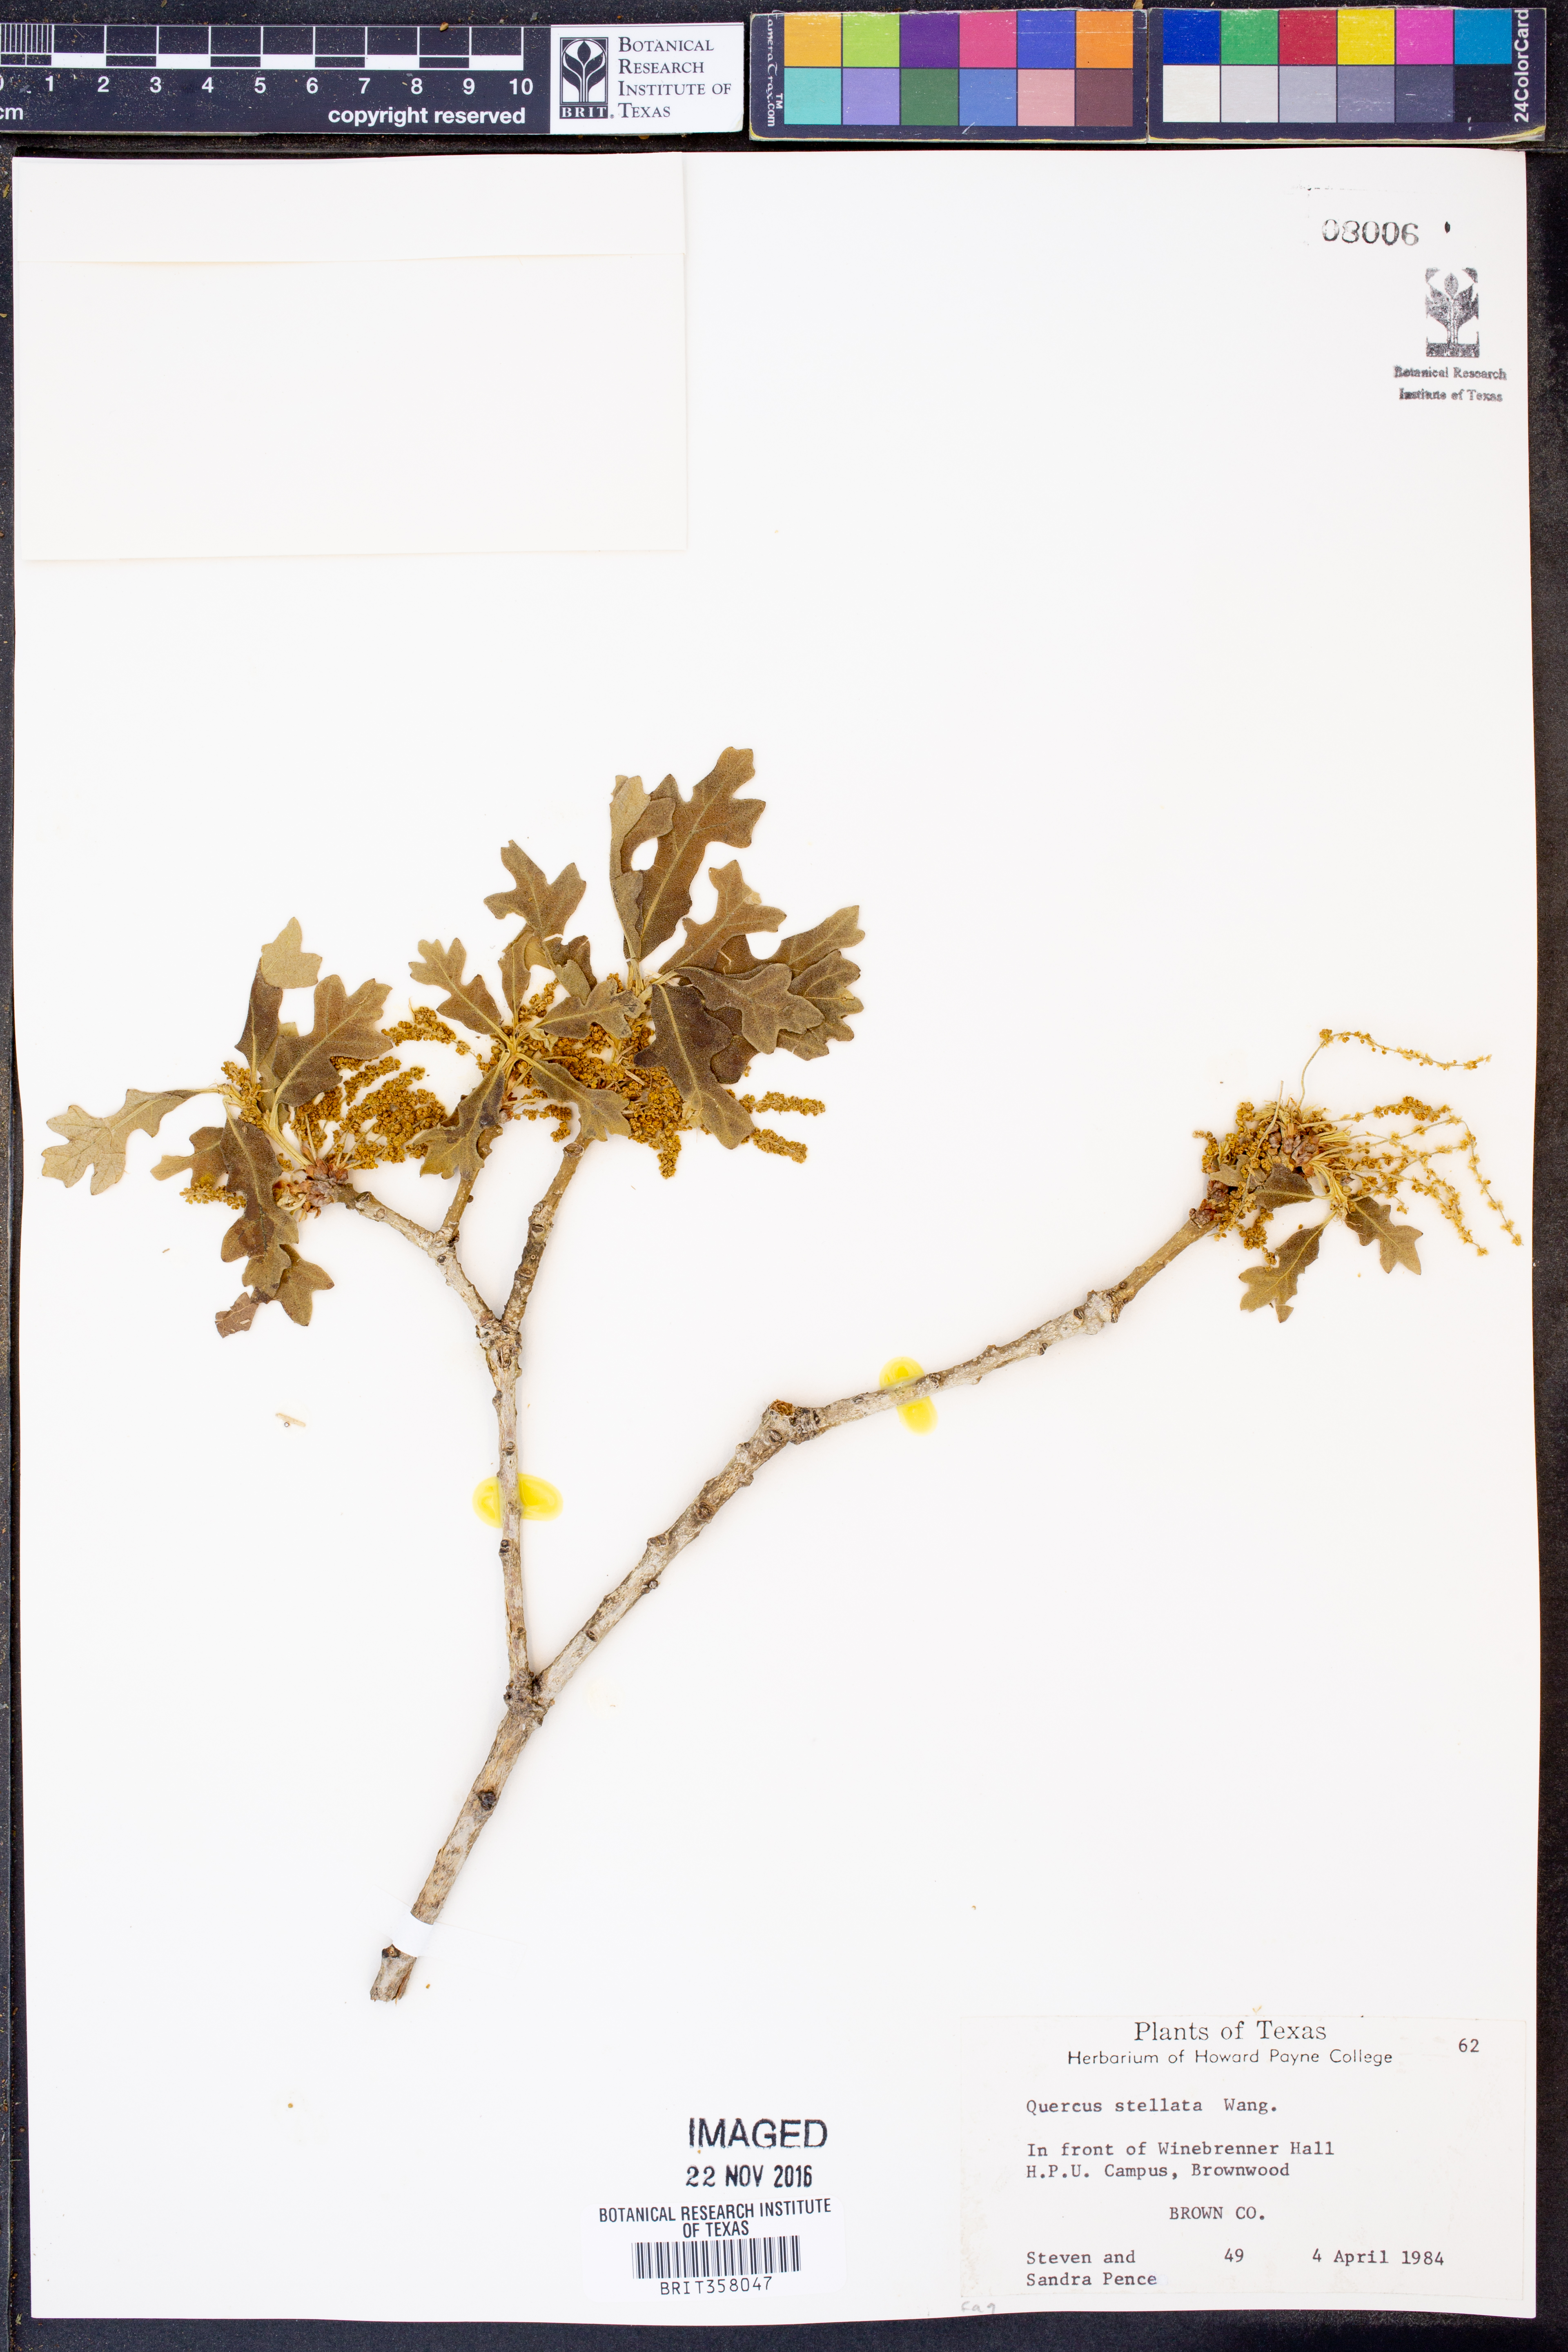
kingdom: Plantae
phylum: Tracheophyta
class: Magnoliopsida
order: Fagales
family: Fagaceae
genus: Quercus
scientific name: Quercus stellata
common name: Post oak
